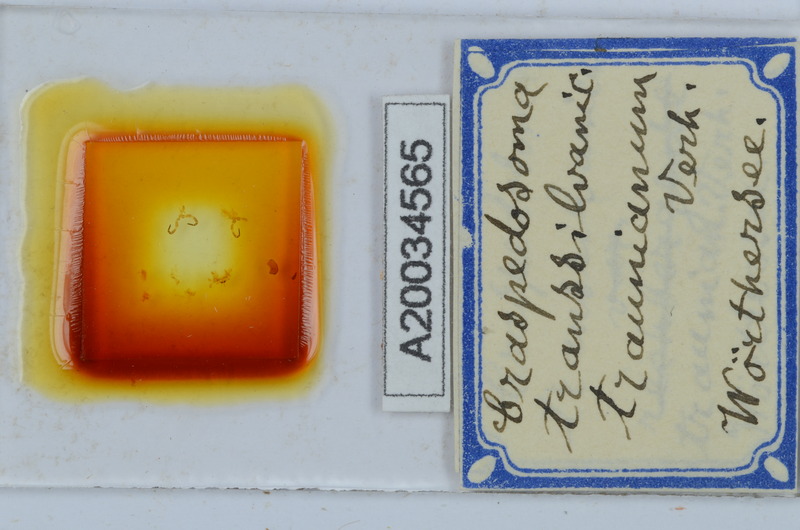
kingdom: Animalia
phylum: Arthropoda
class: Diplopoda
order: Chordeumatida
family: Craspedosomatidae
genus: Craspedosoma
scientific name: Craspedosoma transsilvanicum
